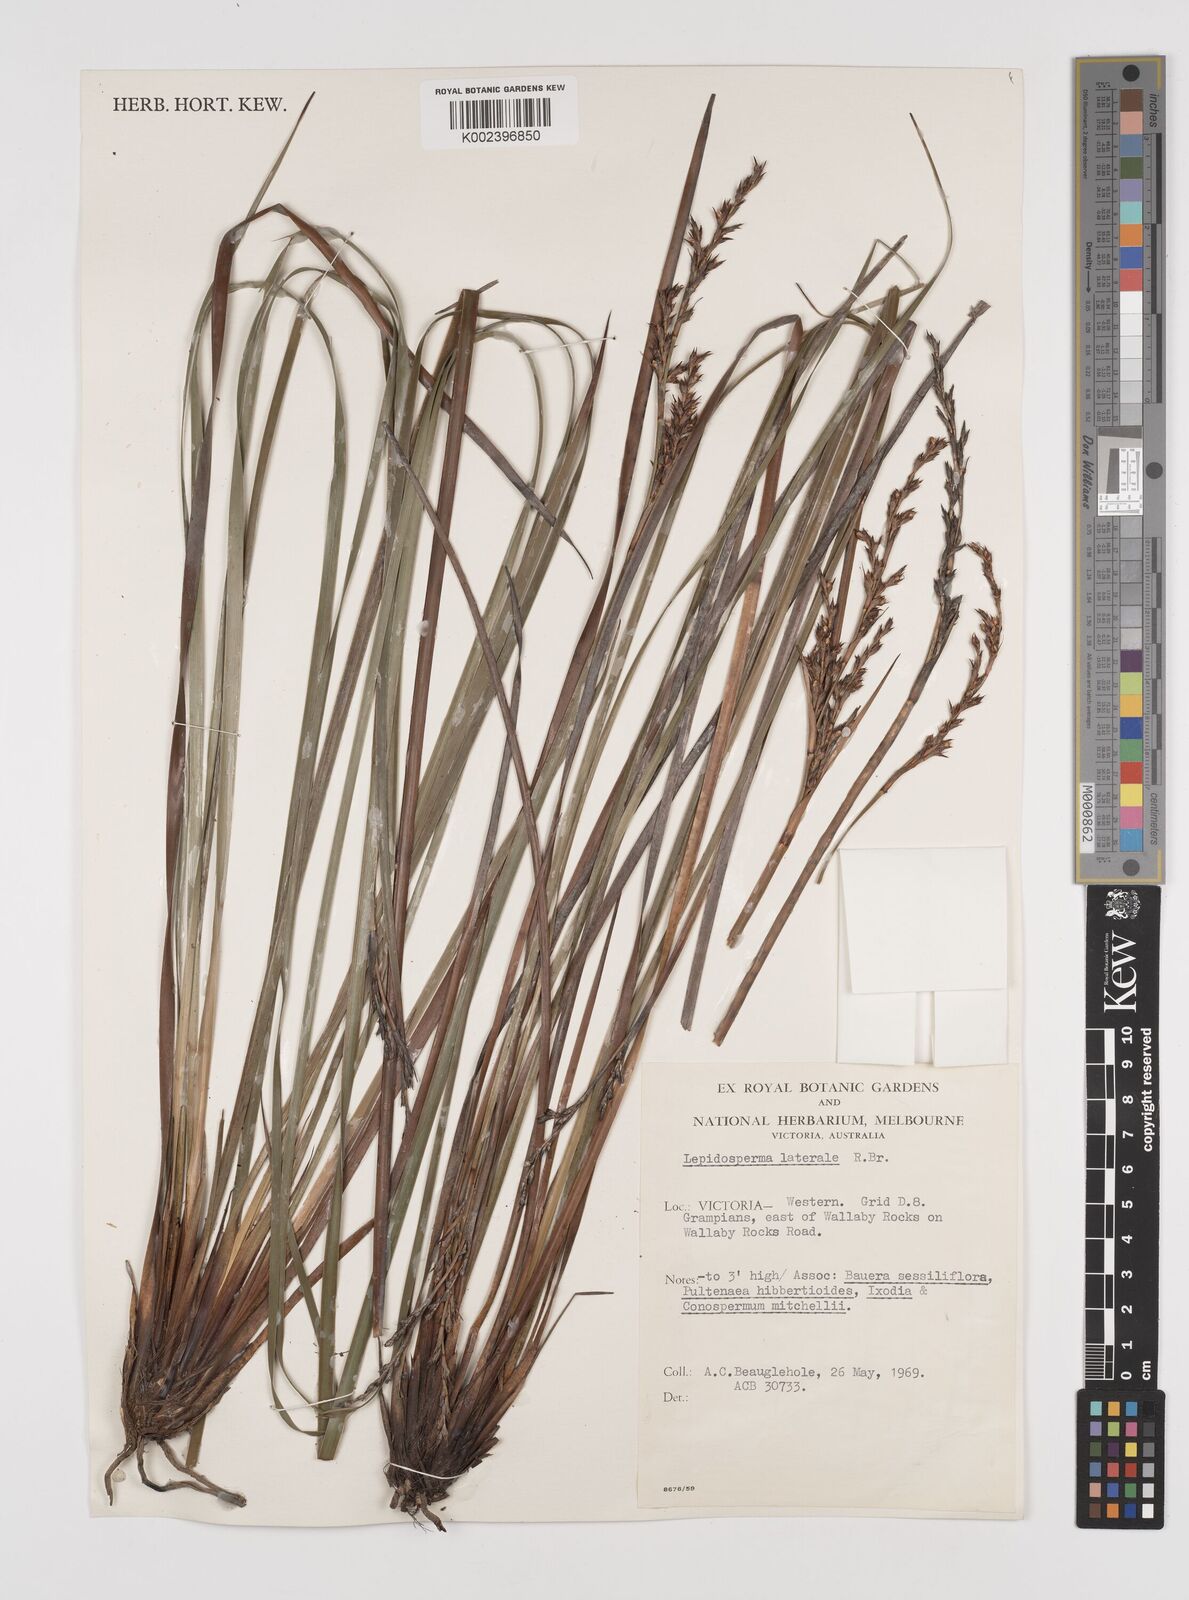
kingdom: Plantae
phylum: Tracheophyta
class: Liliopsida
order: Poales
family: Cyperaceae
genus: Lepidosperma
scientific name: Lepidosperma laterale
